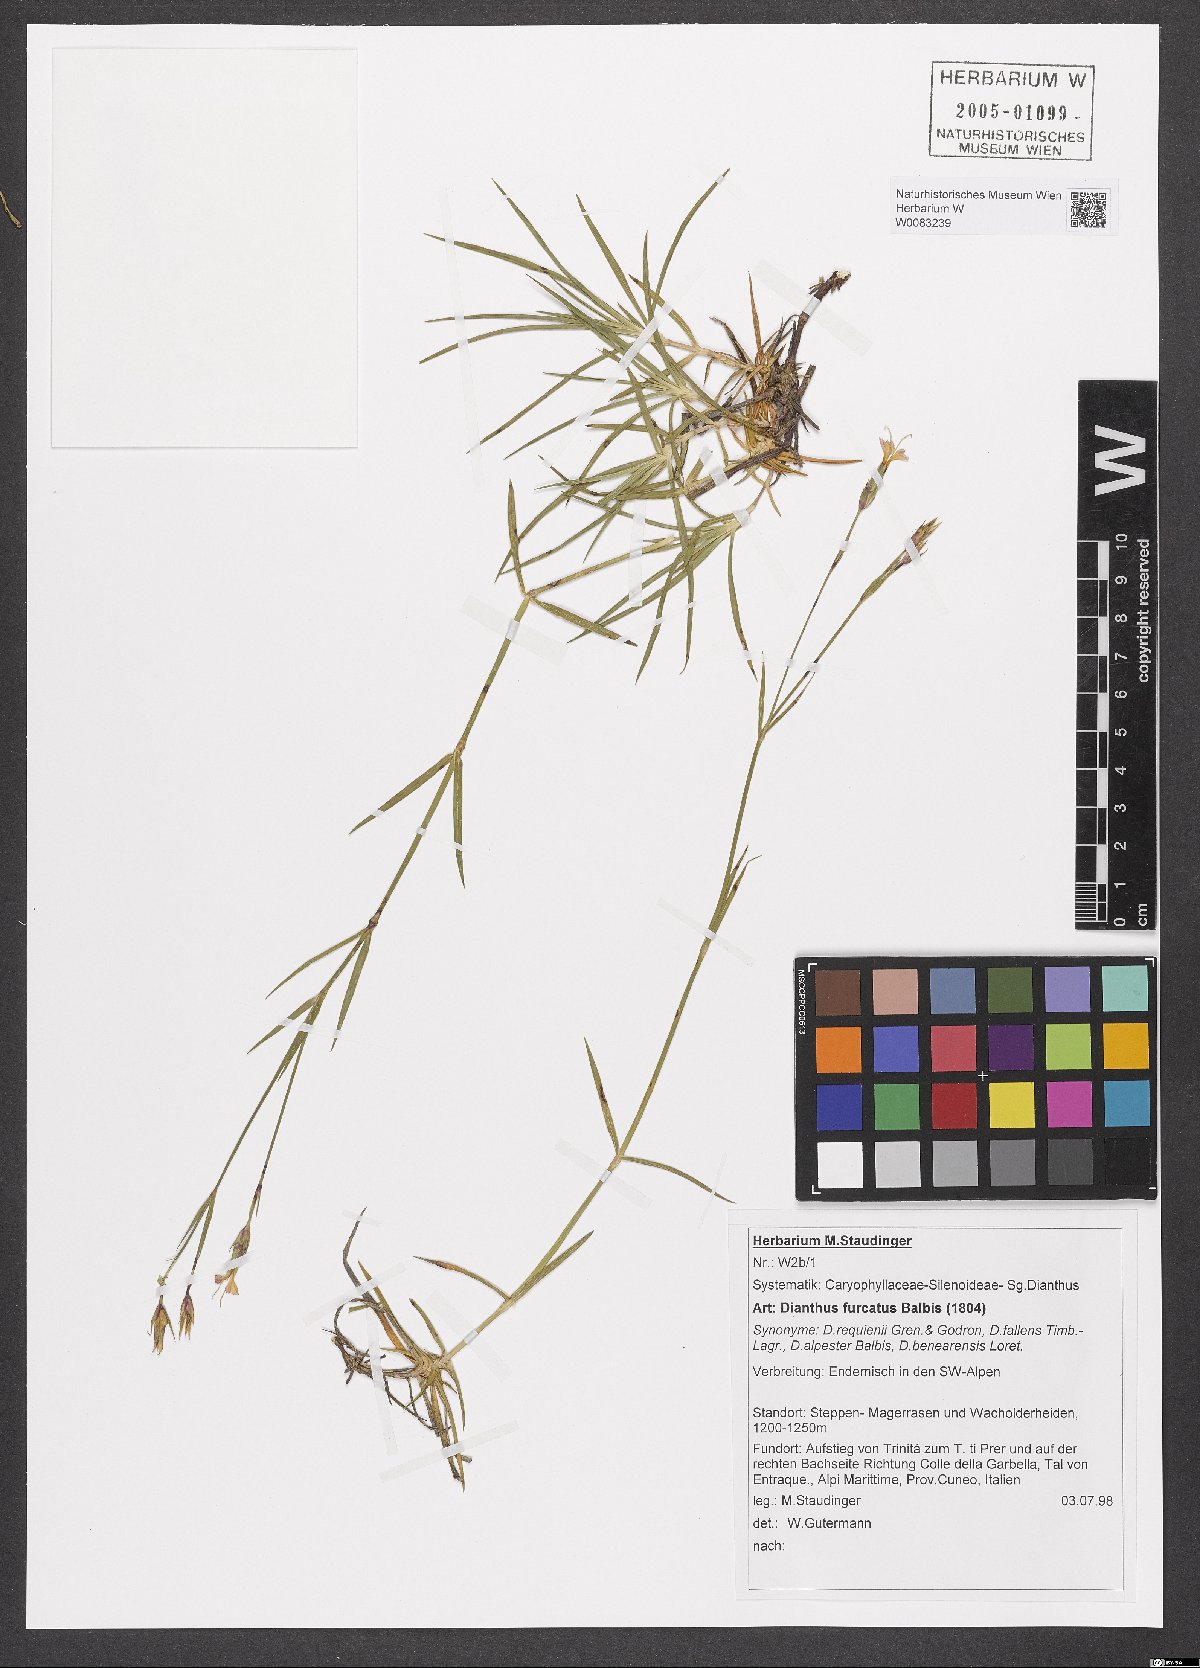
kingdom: Plantae
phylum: Tracheophyta
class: Magnoliopsida
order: Caryophyllales
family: Caryophyllaceae
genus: Dianthus
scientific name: Dianthus furcatus
